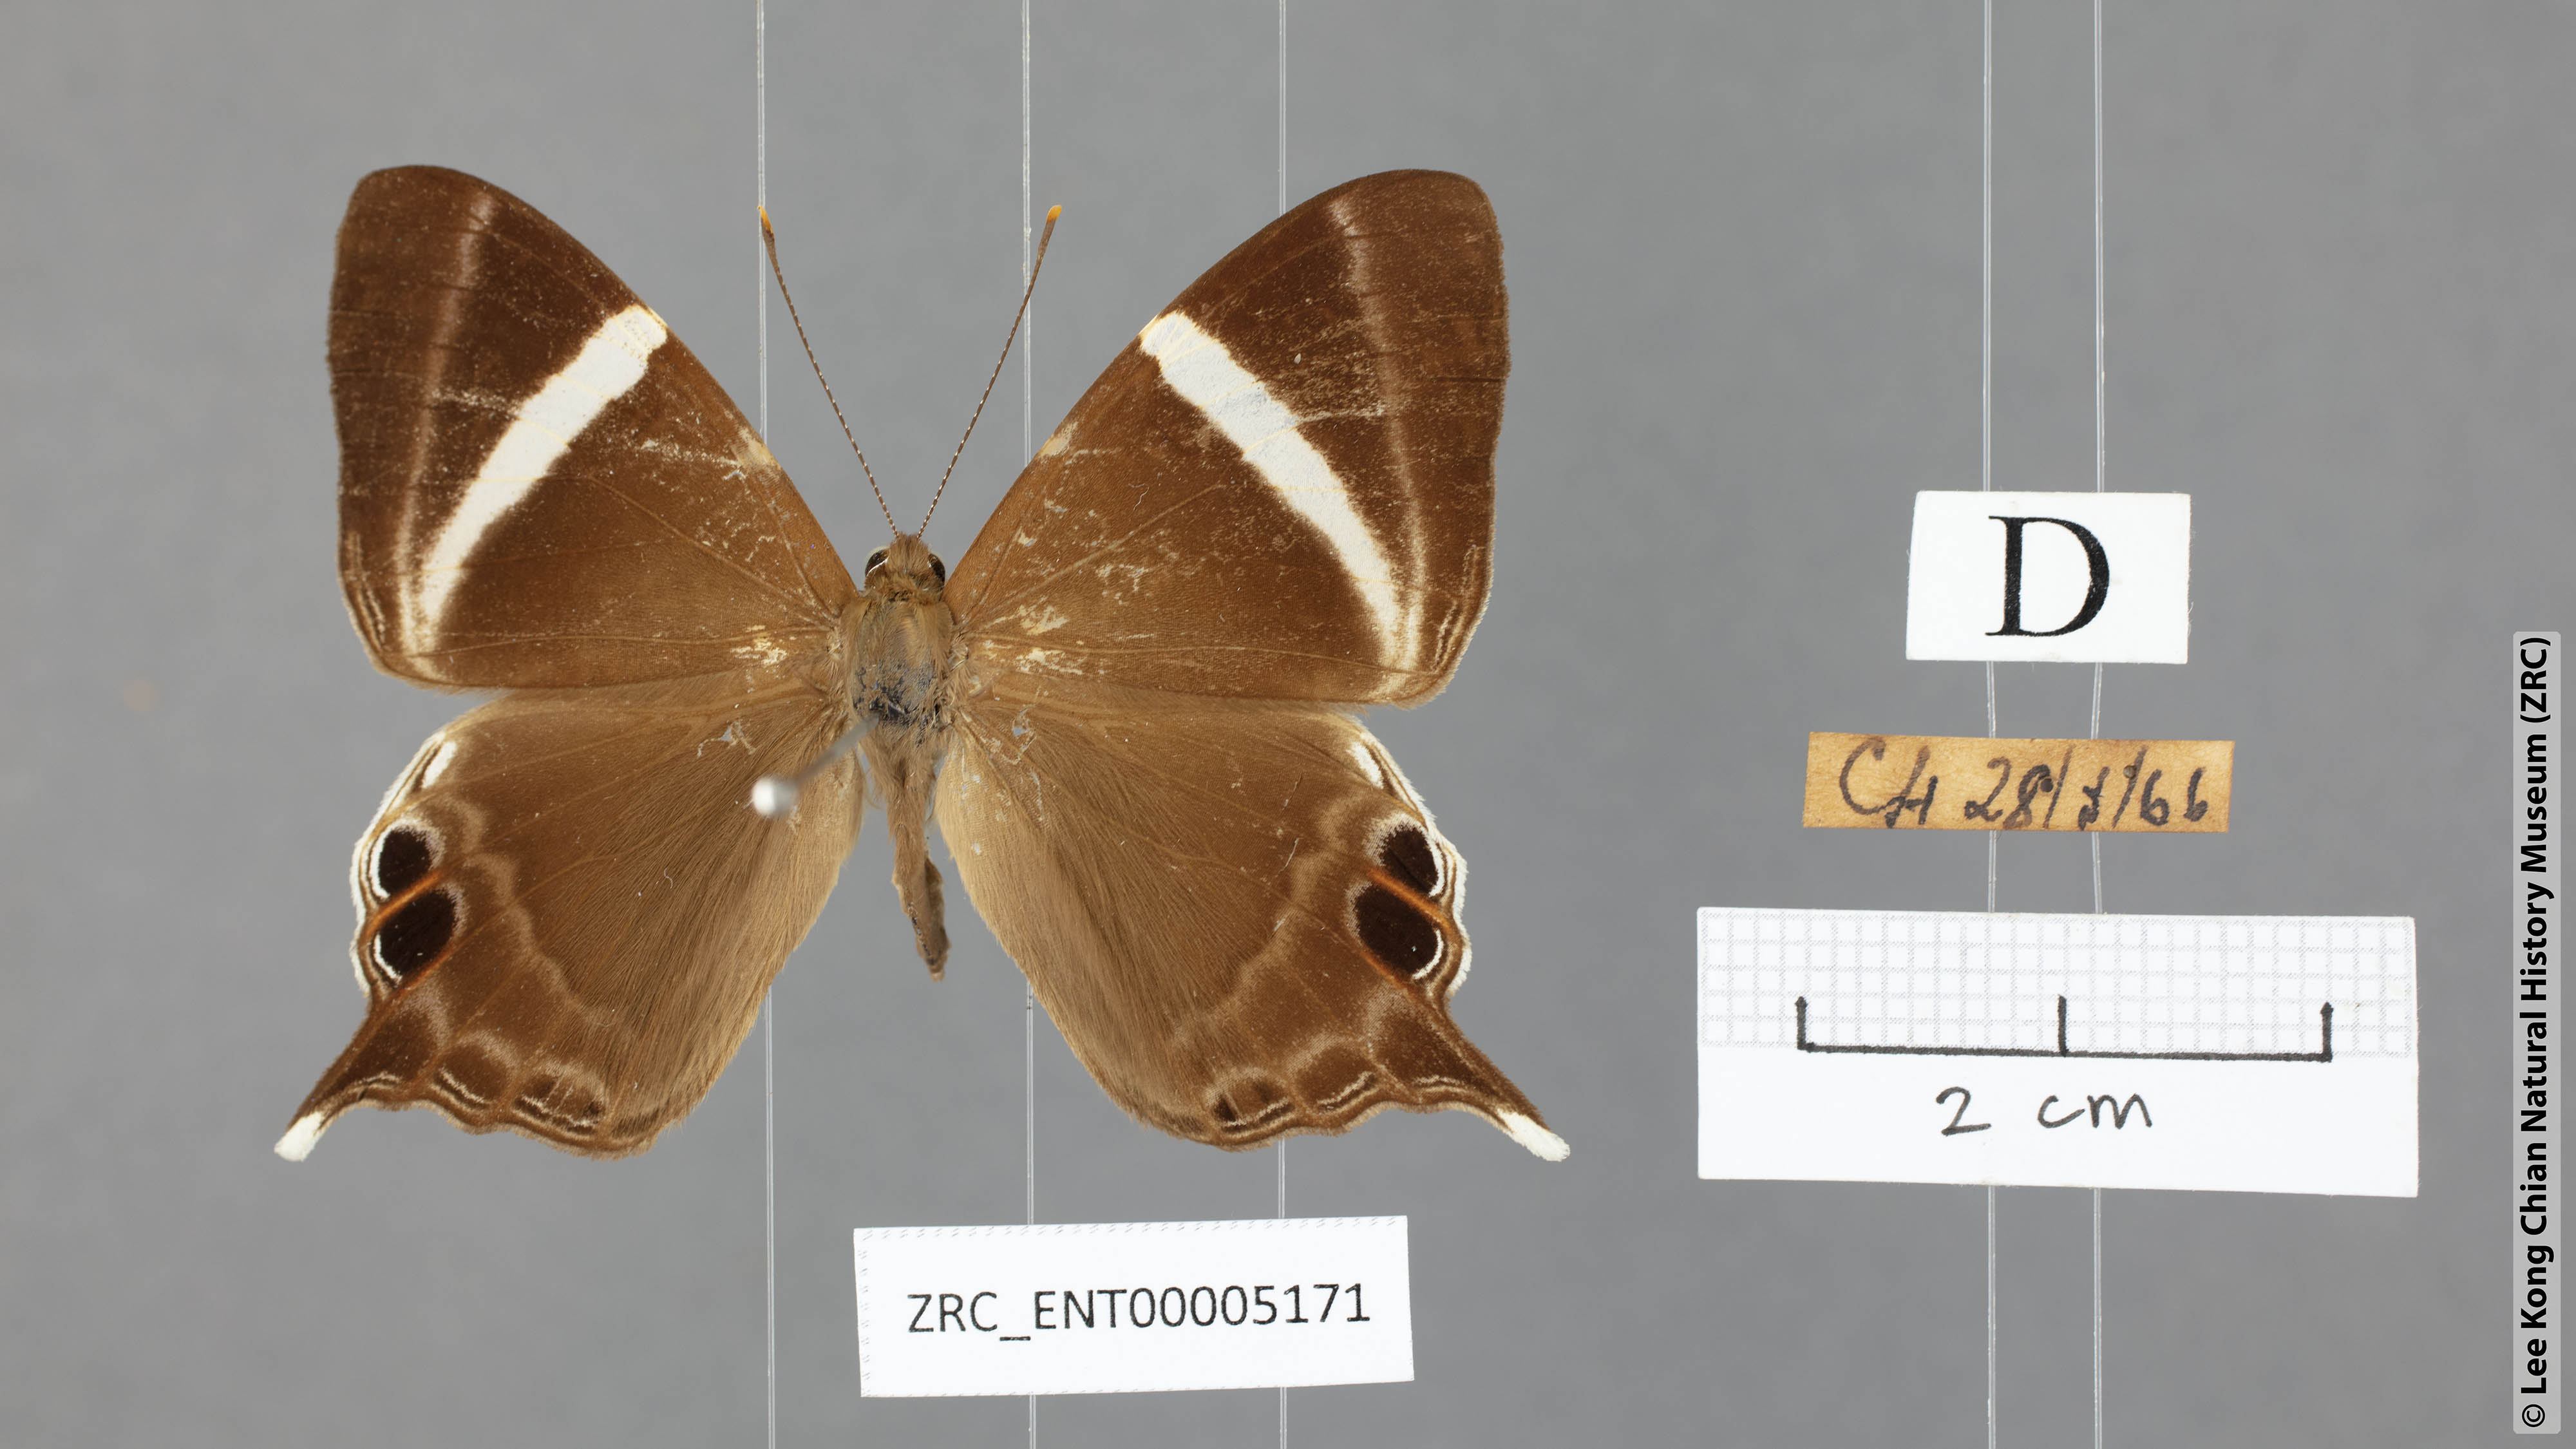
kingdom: Animalia
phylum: Arthropoda
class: Insecta
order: Lepidoptera
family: Riodinidae
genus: Archigenes
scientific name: Archigenes neophron
